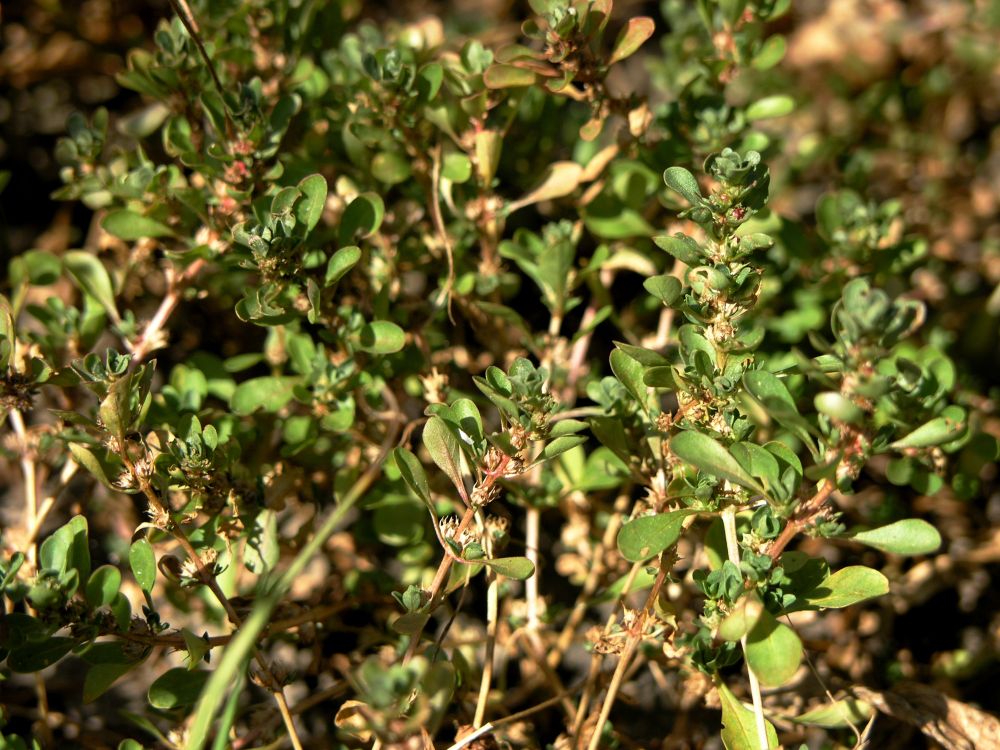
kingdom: Plantae
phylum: Tracheophyta
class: Magnoliopsida
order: Myrtales
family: Lythraceae
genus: Lythrum
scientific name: Lythrum portula
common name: Water purslane
